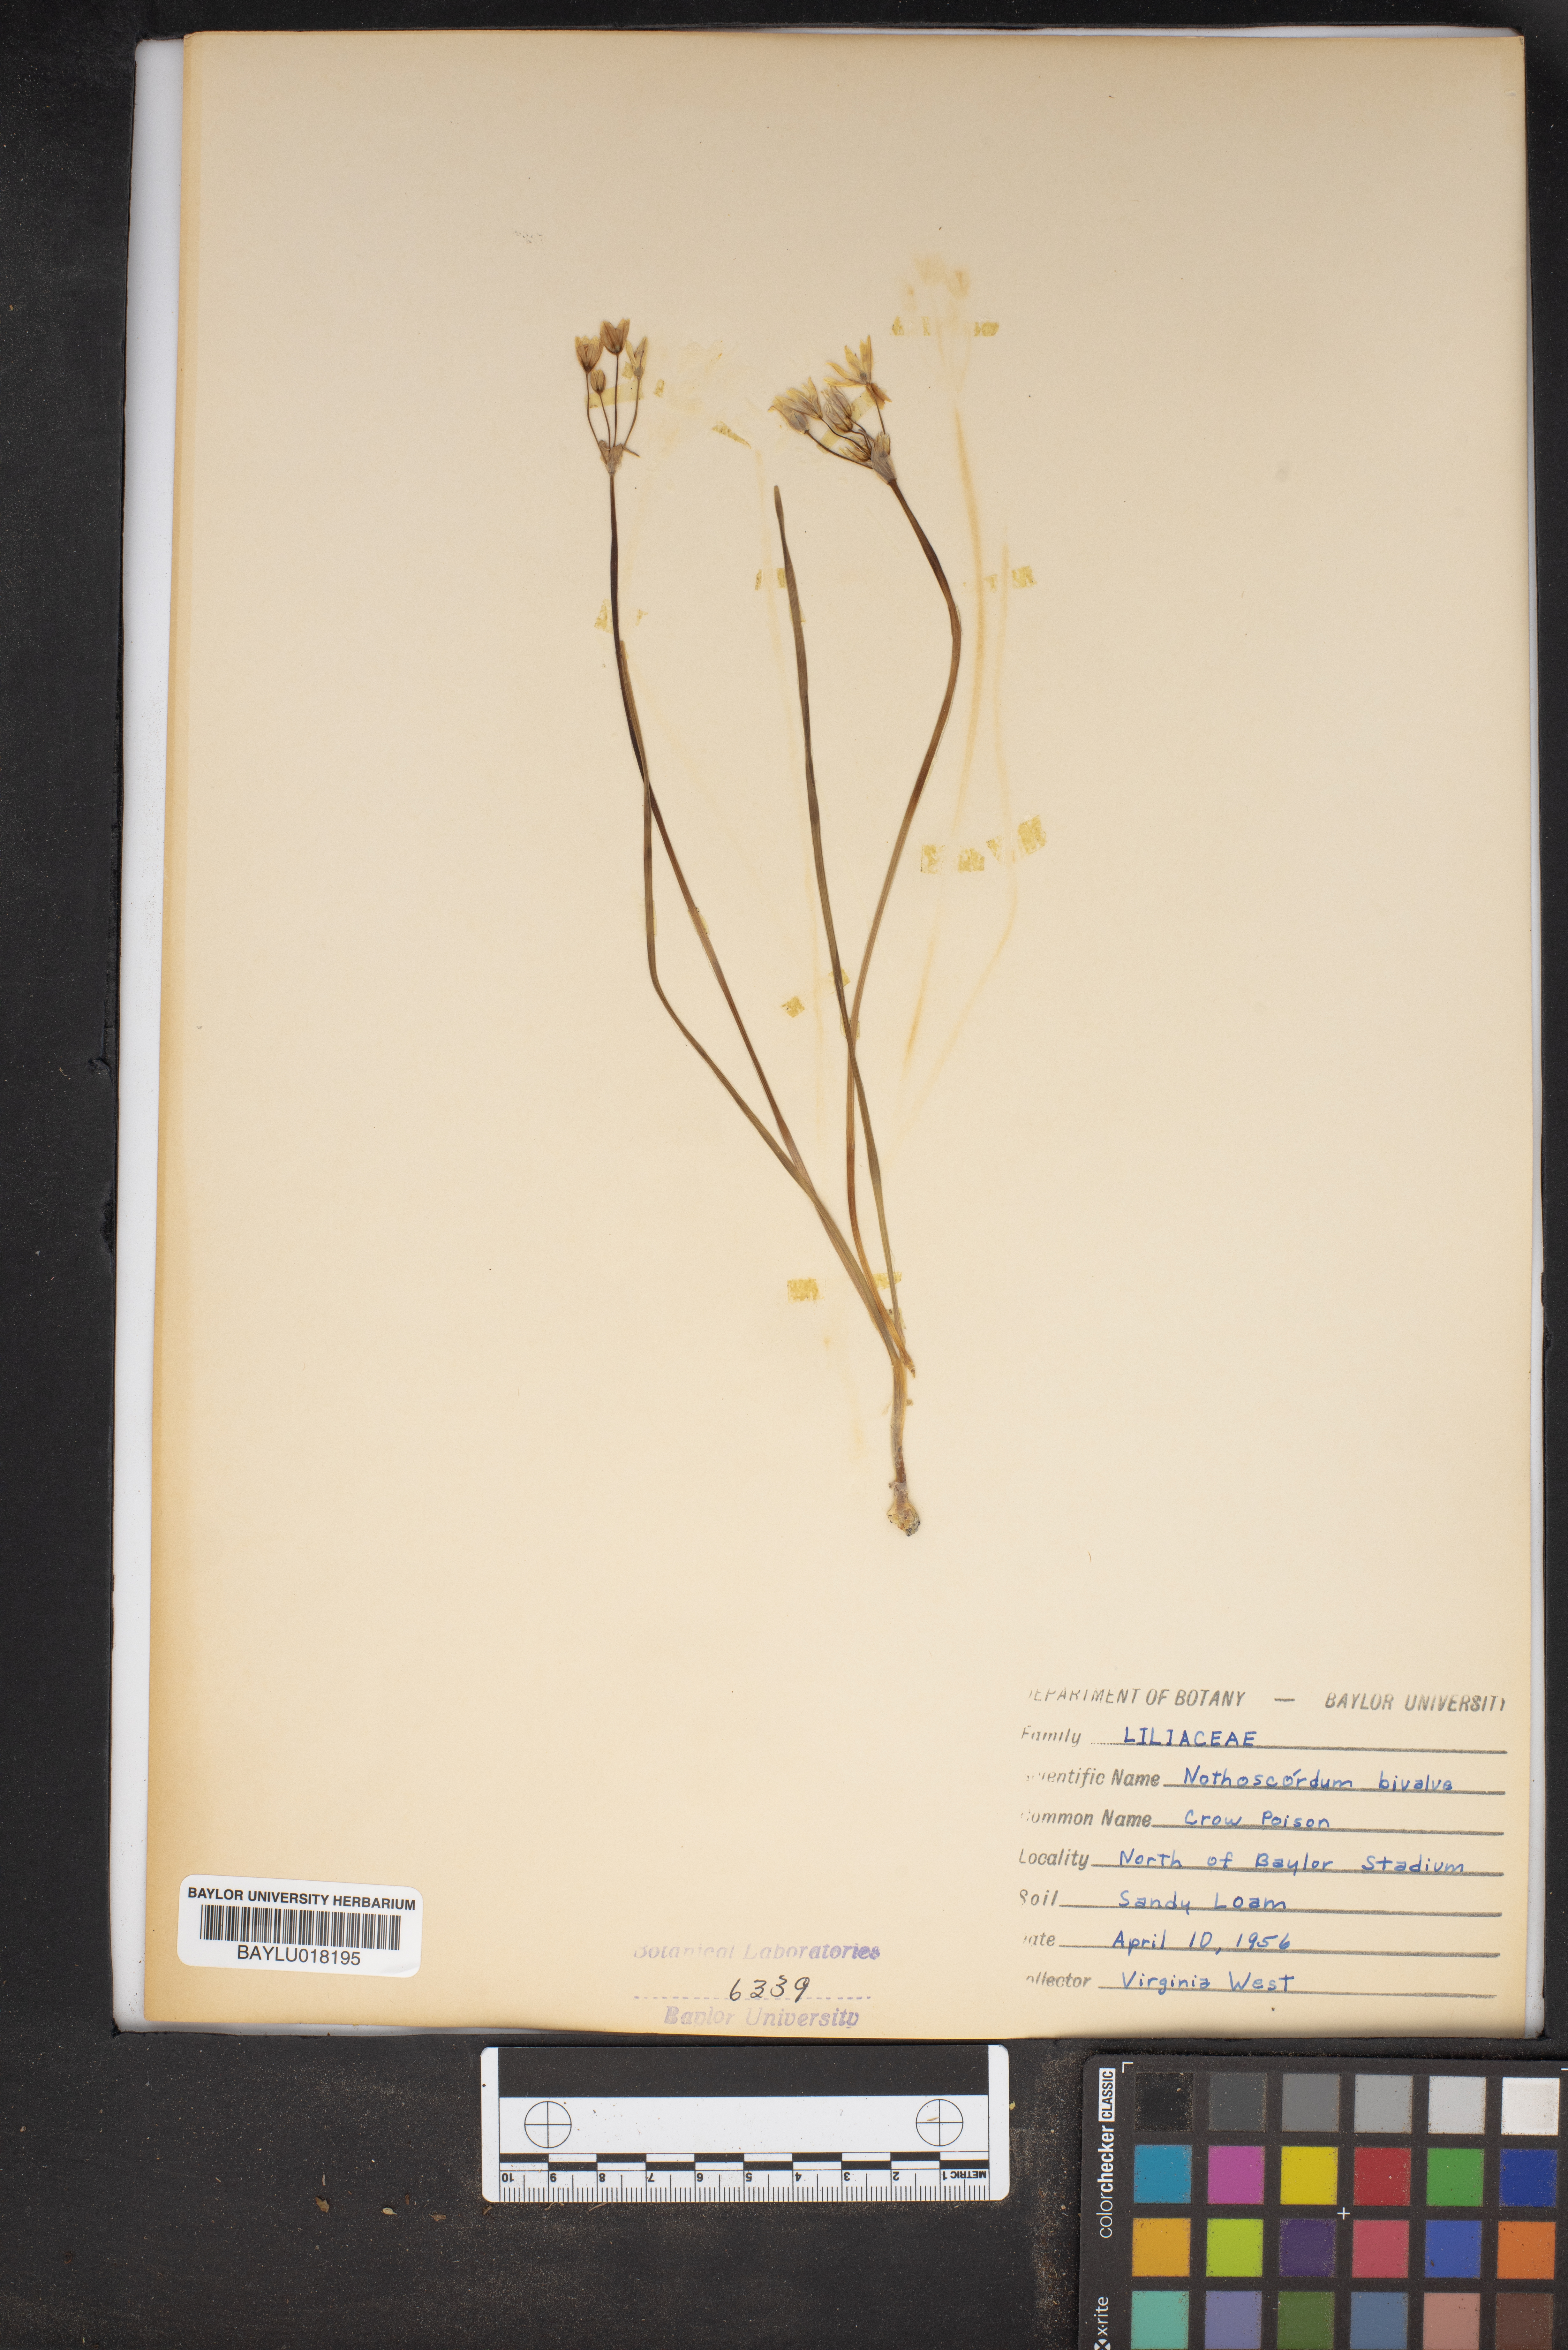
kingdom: Plantae
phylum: Tracheophyta
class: Liliopsida
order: Asparagales
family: Amaryllidaceae
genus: Nothoscordum
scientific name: Nothoscordum bivalve
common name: Crow-poison
